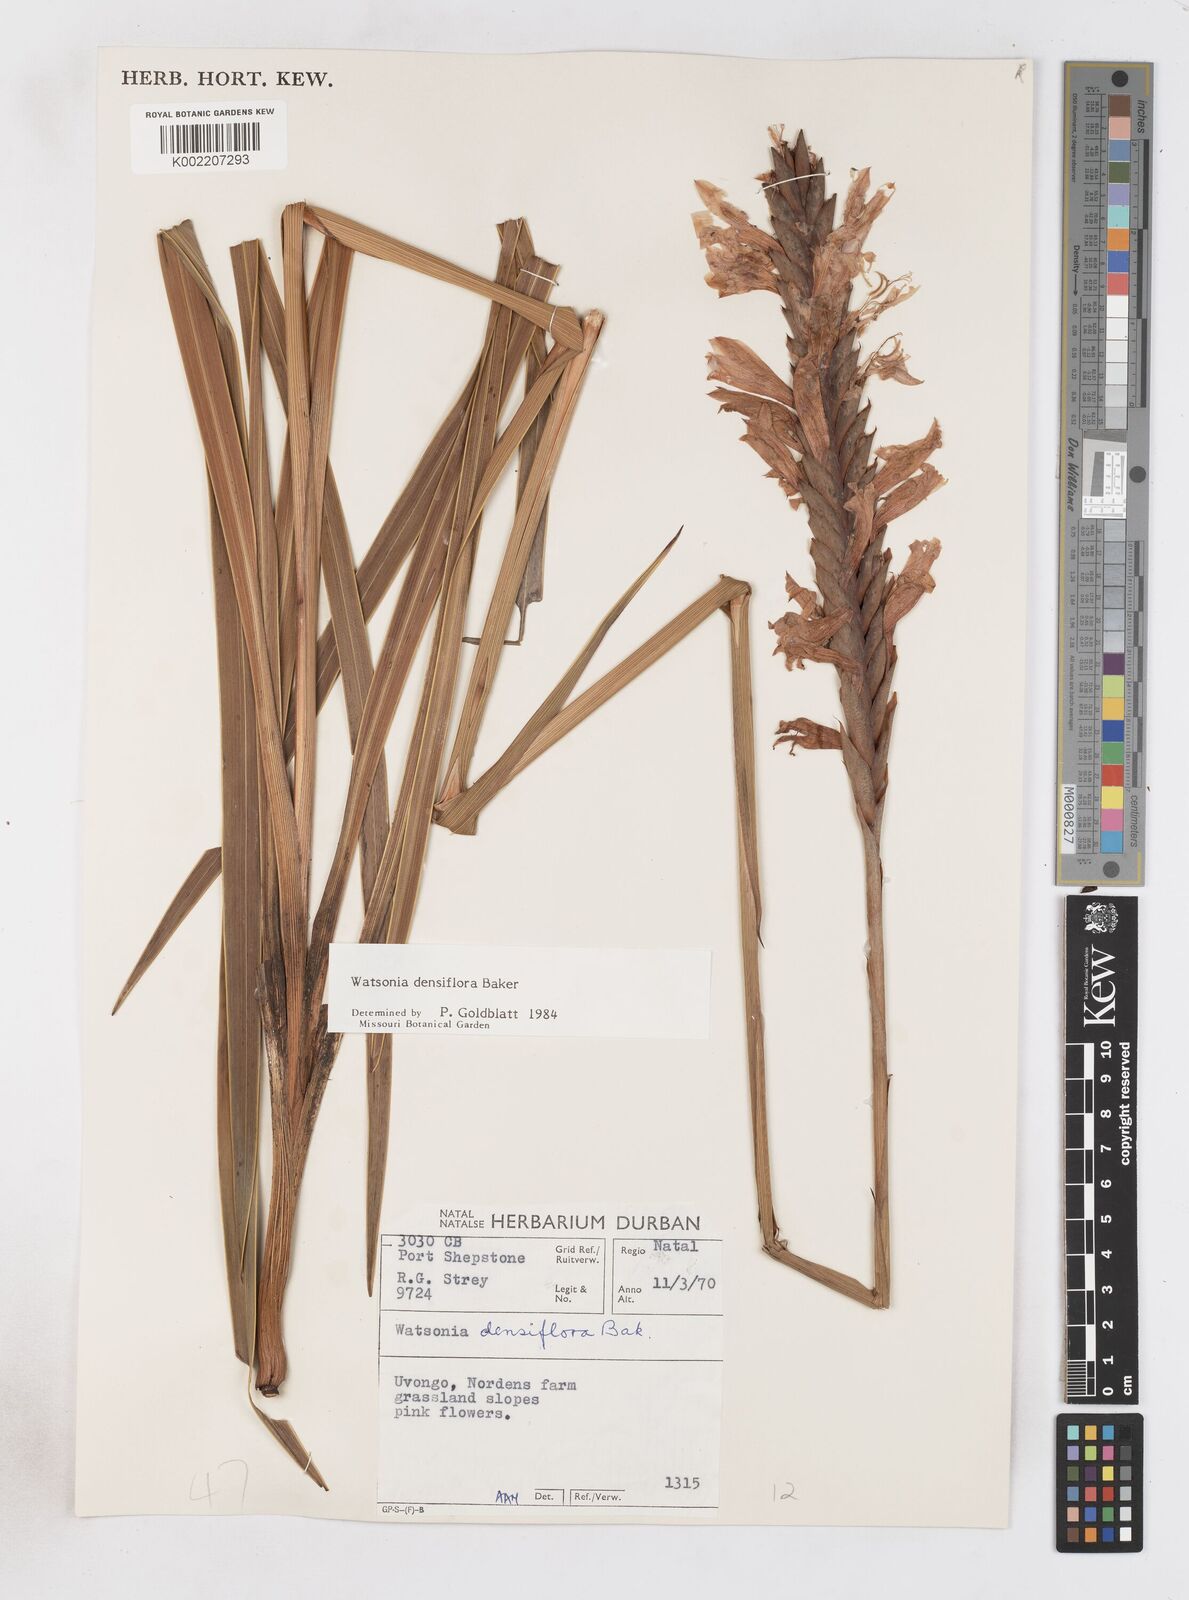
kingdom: Plantae
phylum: Tracheophyta
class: Liliopsida
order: Asparagales
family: Iridaceae
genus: Watsonia
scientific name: Watsonia densiflora
